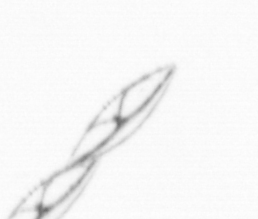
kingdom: Chromista
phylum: Ochrophyta
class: Bacillariophyceae
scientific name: Bacillariophyceae
